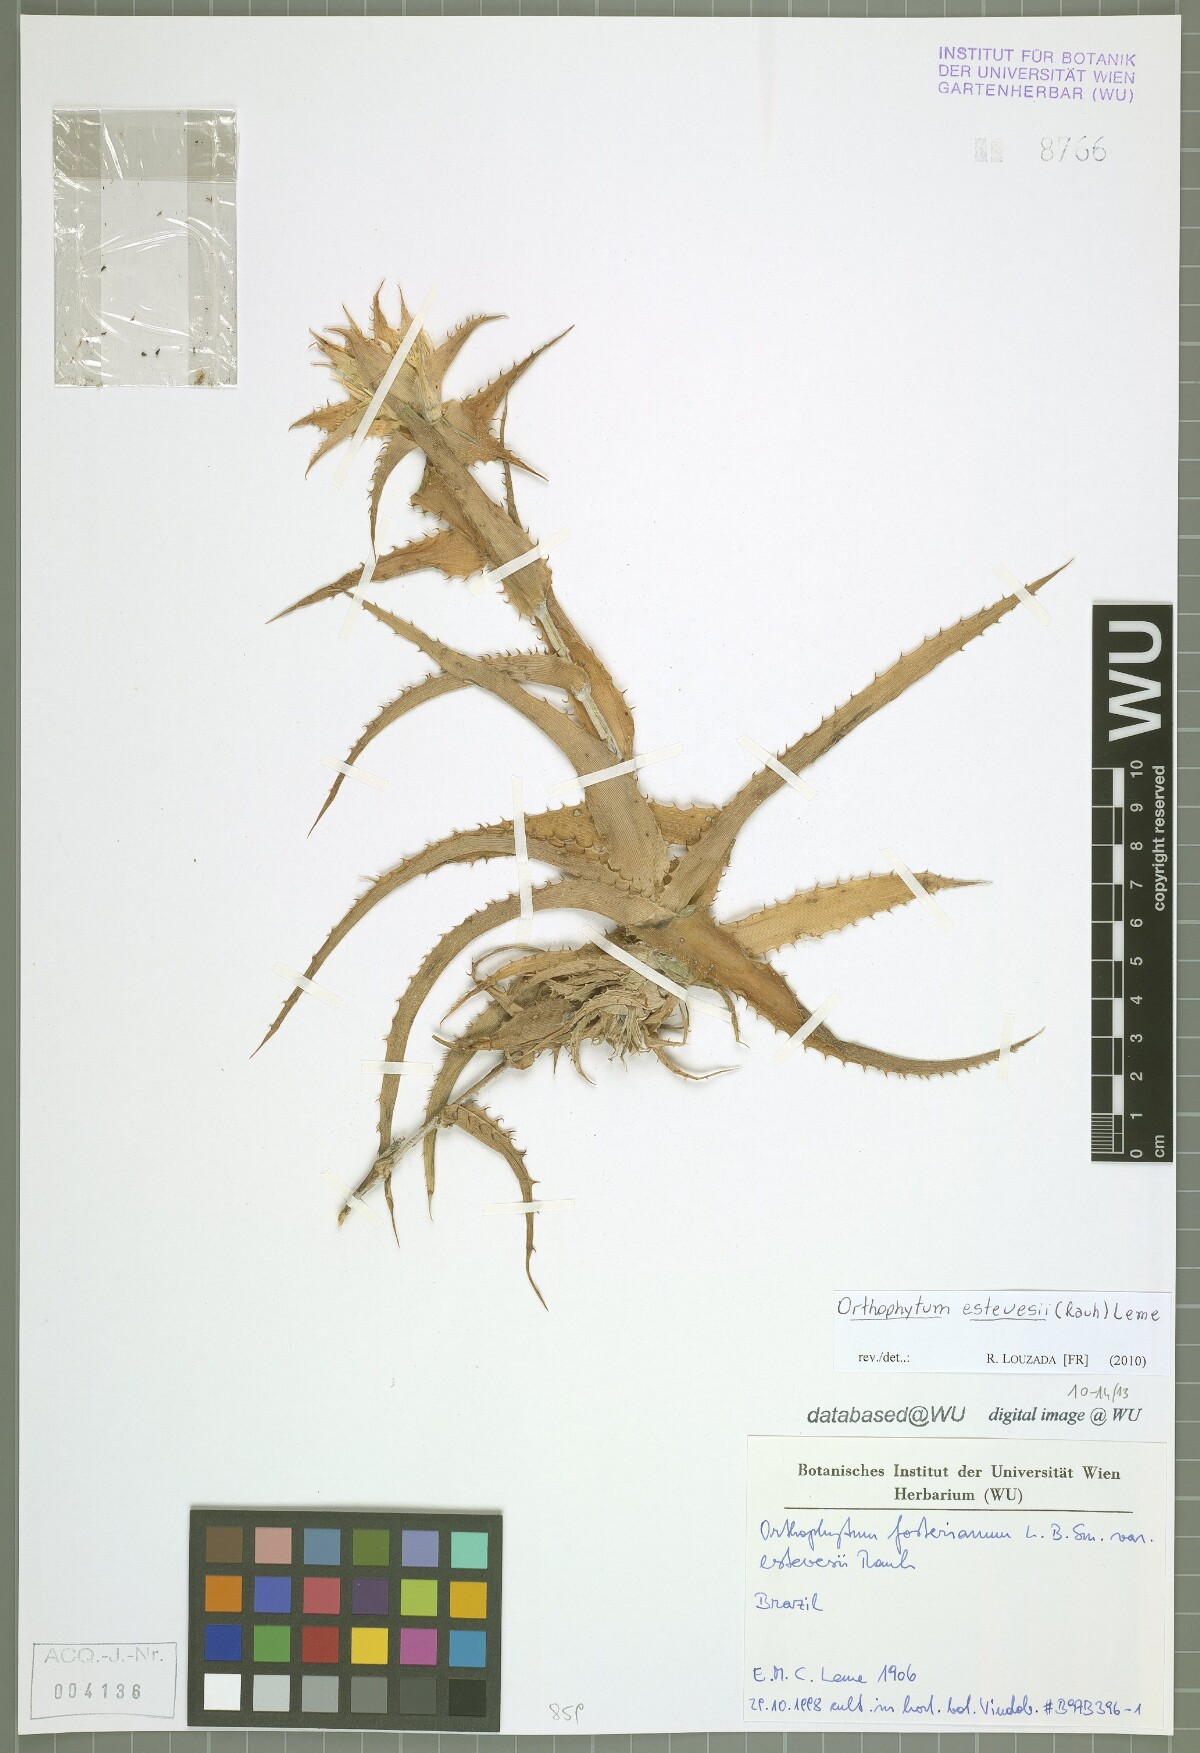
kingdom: Plantae
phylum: Tracheophyta
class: Liliopsida
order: Poales
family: Bromeliaceae
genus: Orthophytum
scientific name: Orthophytum estevesii
